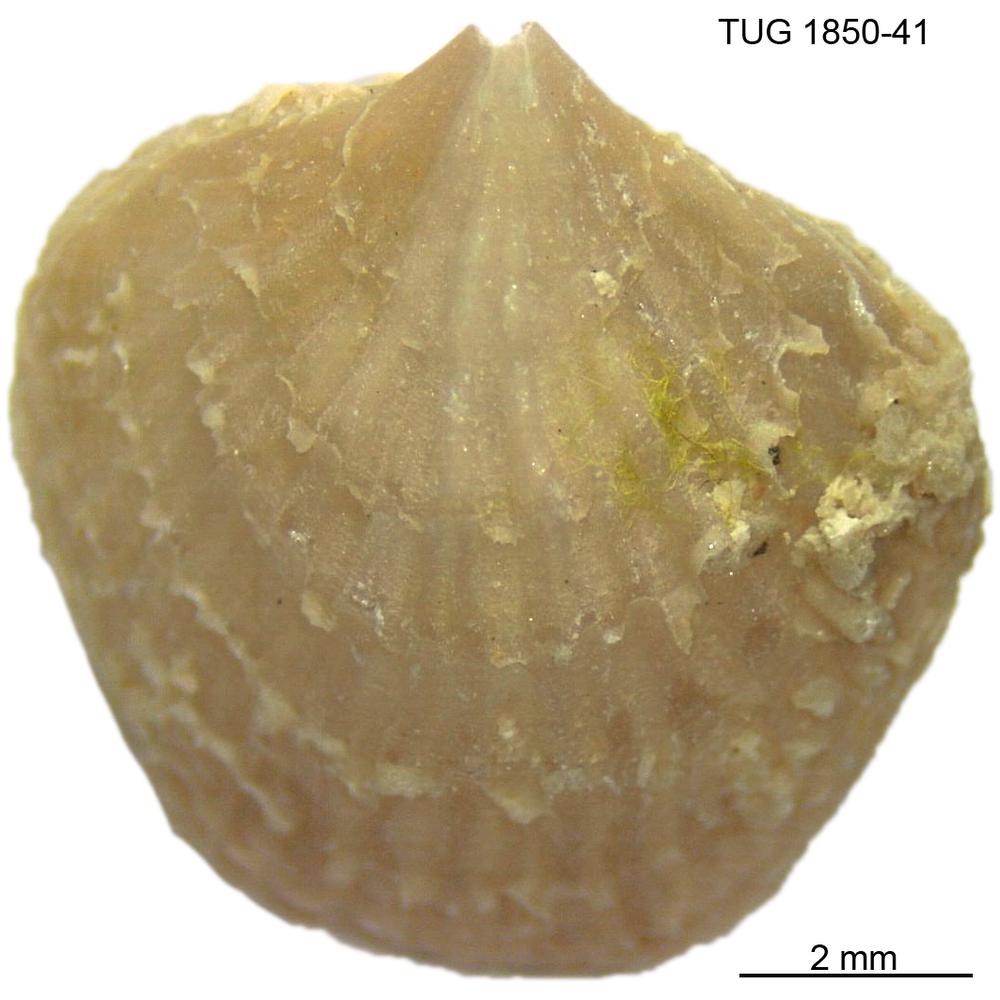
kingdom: Animalia
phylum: Brachiopoda
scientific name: Brachiopoda
